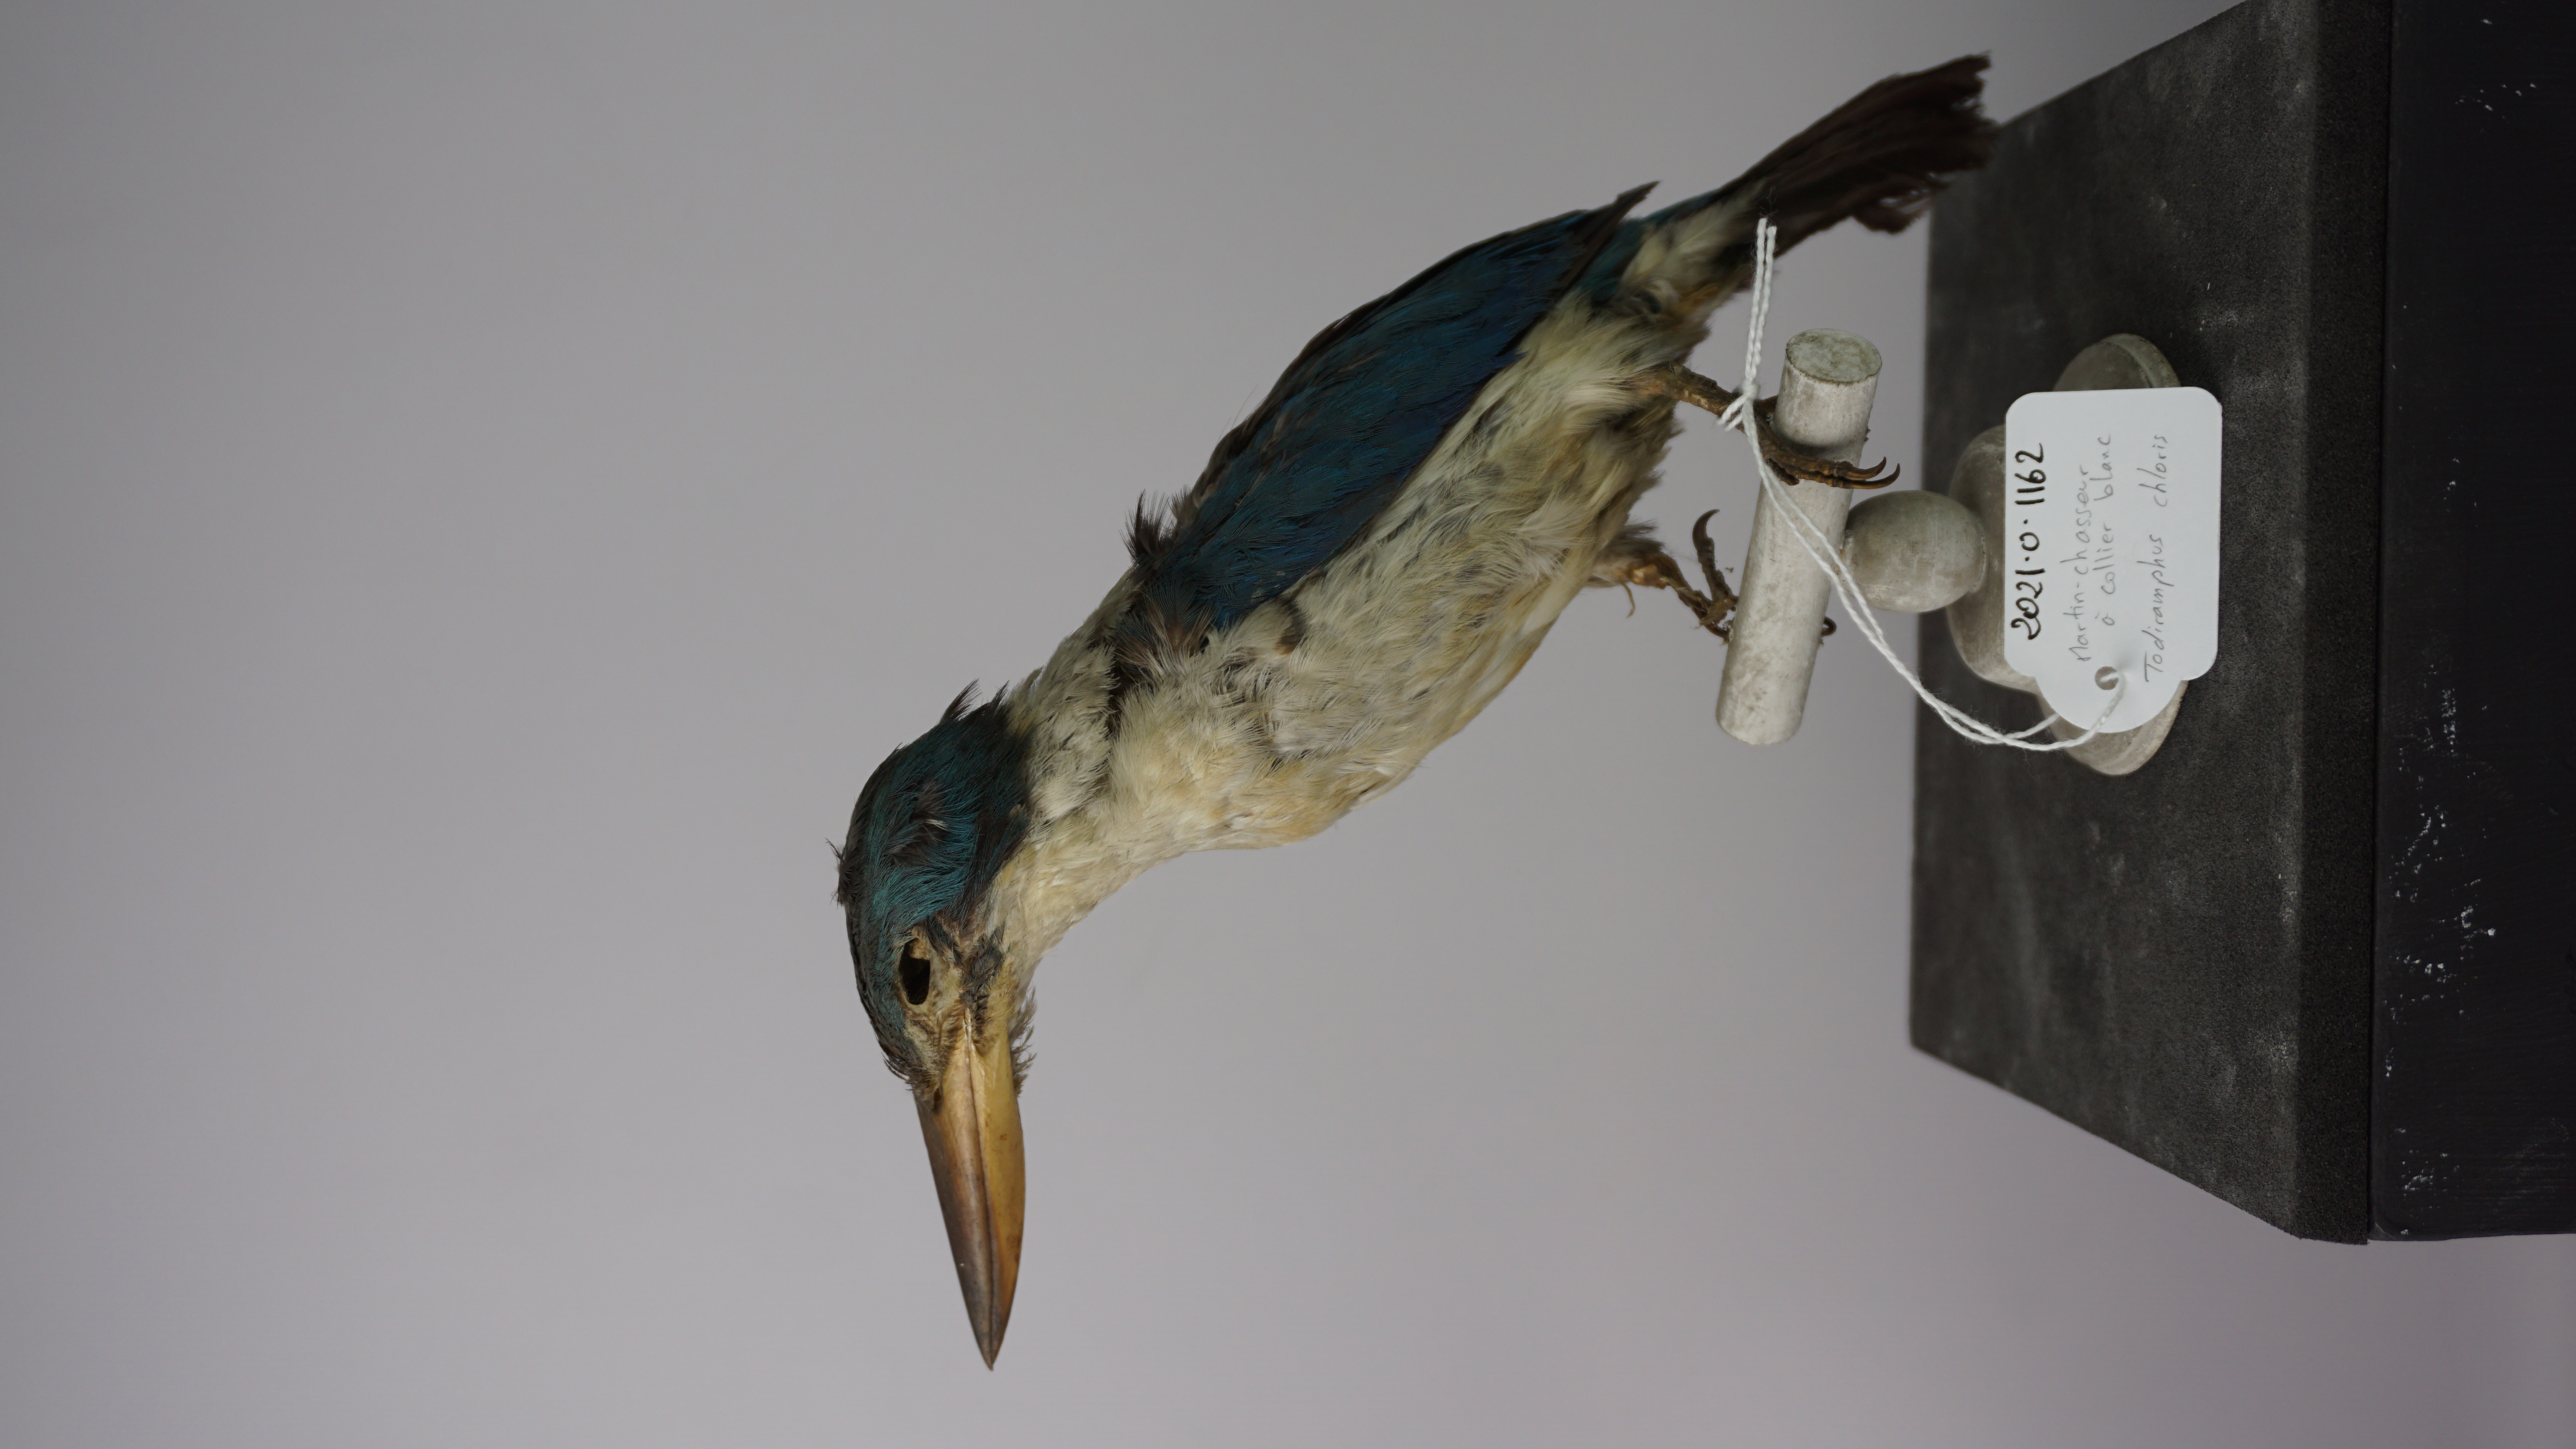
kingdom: Animalia
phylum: Chordata
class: Aves
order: Coraciiformes
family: Alcedinidae
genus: Todiramphus
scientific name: Todiramphus chloris
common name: Collared kingfisher
